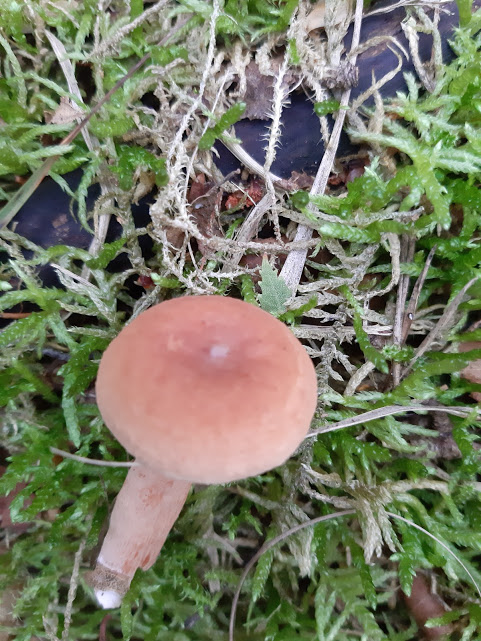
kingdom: Fungi
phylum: Basidiomycota
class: Agaricomycetes
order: Russulales
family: Russulaceae
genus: Lactarius
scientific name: Lactarius tabidus
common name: rynket mælkehat
